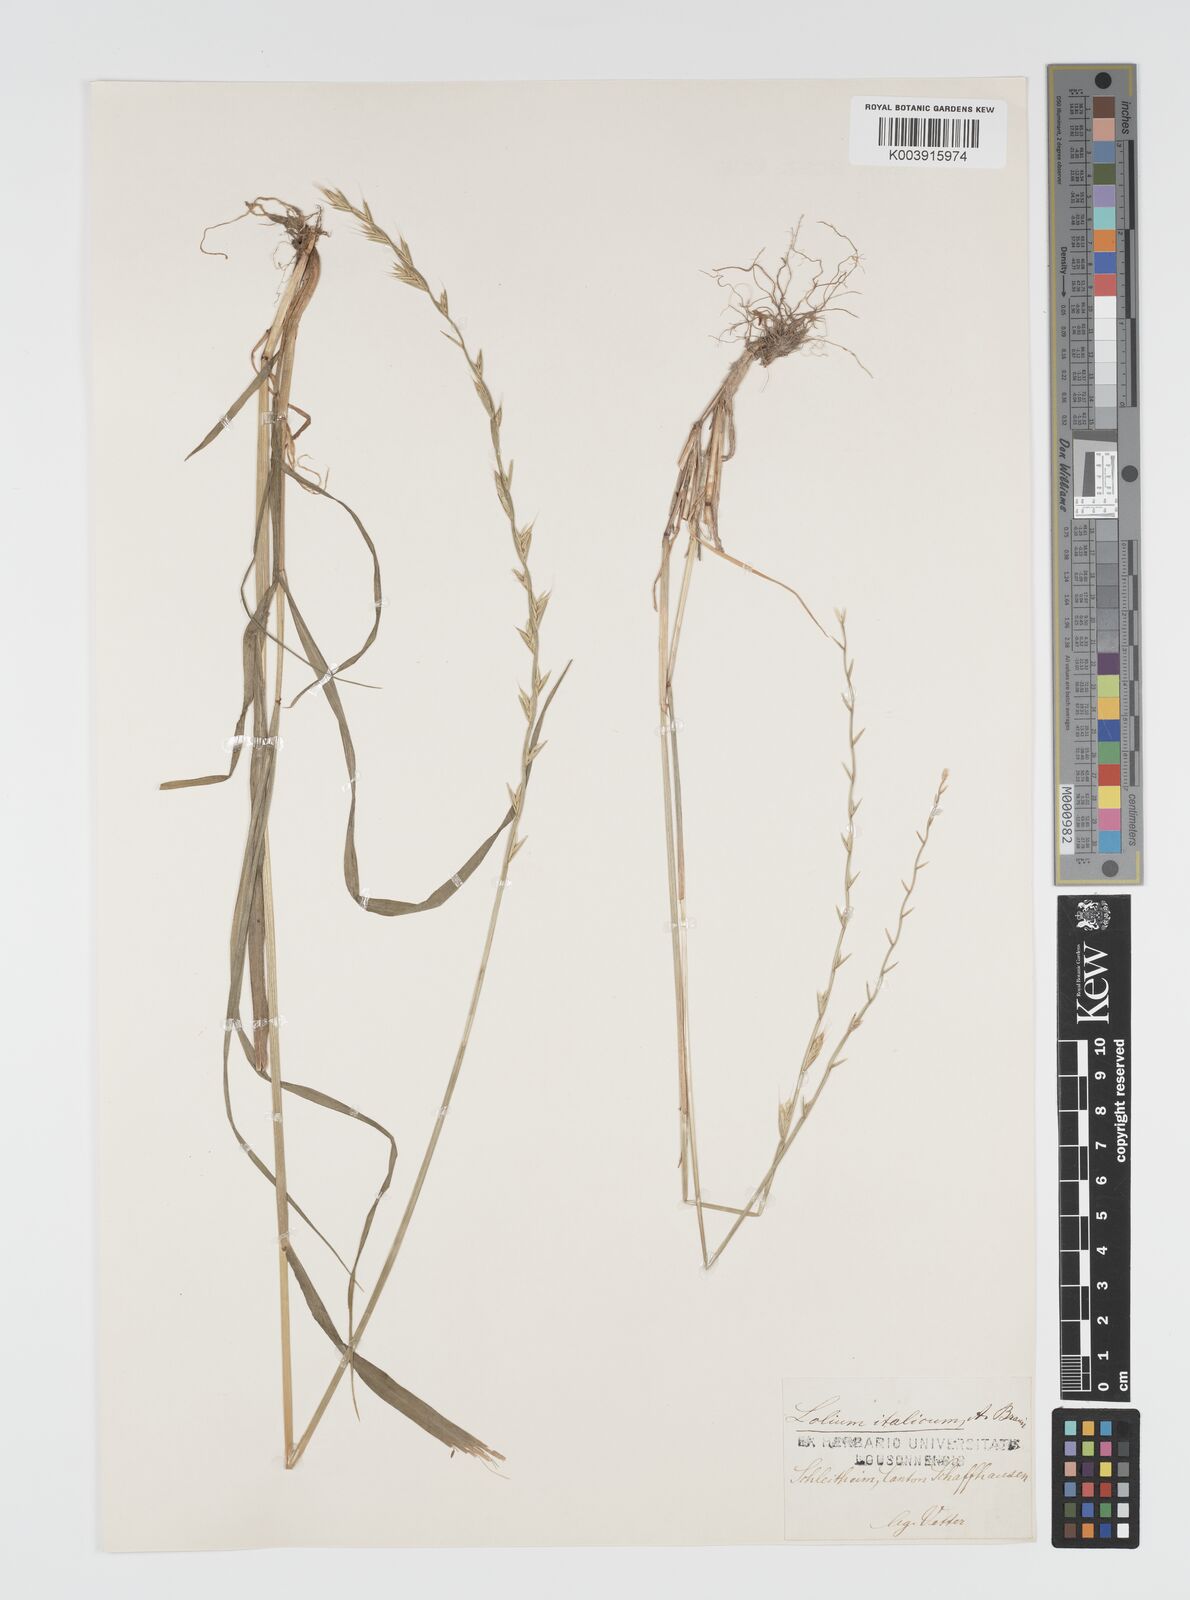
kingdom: Plantae
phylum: Tracheophyta
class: Liliopsida
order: Poales
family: Poaceae
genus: Lolium
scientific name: Lolium multiflorum
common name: Annual ryegrass
